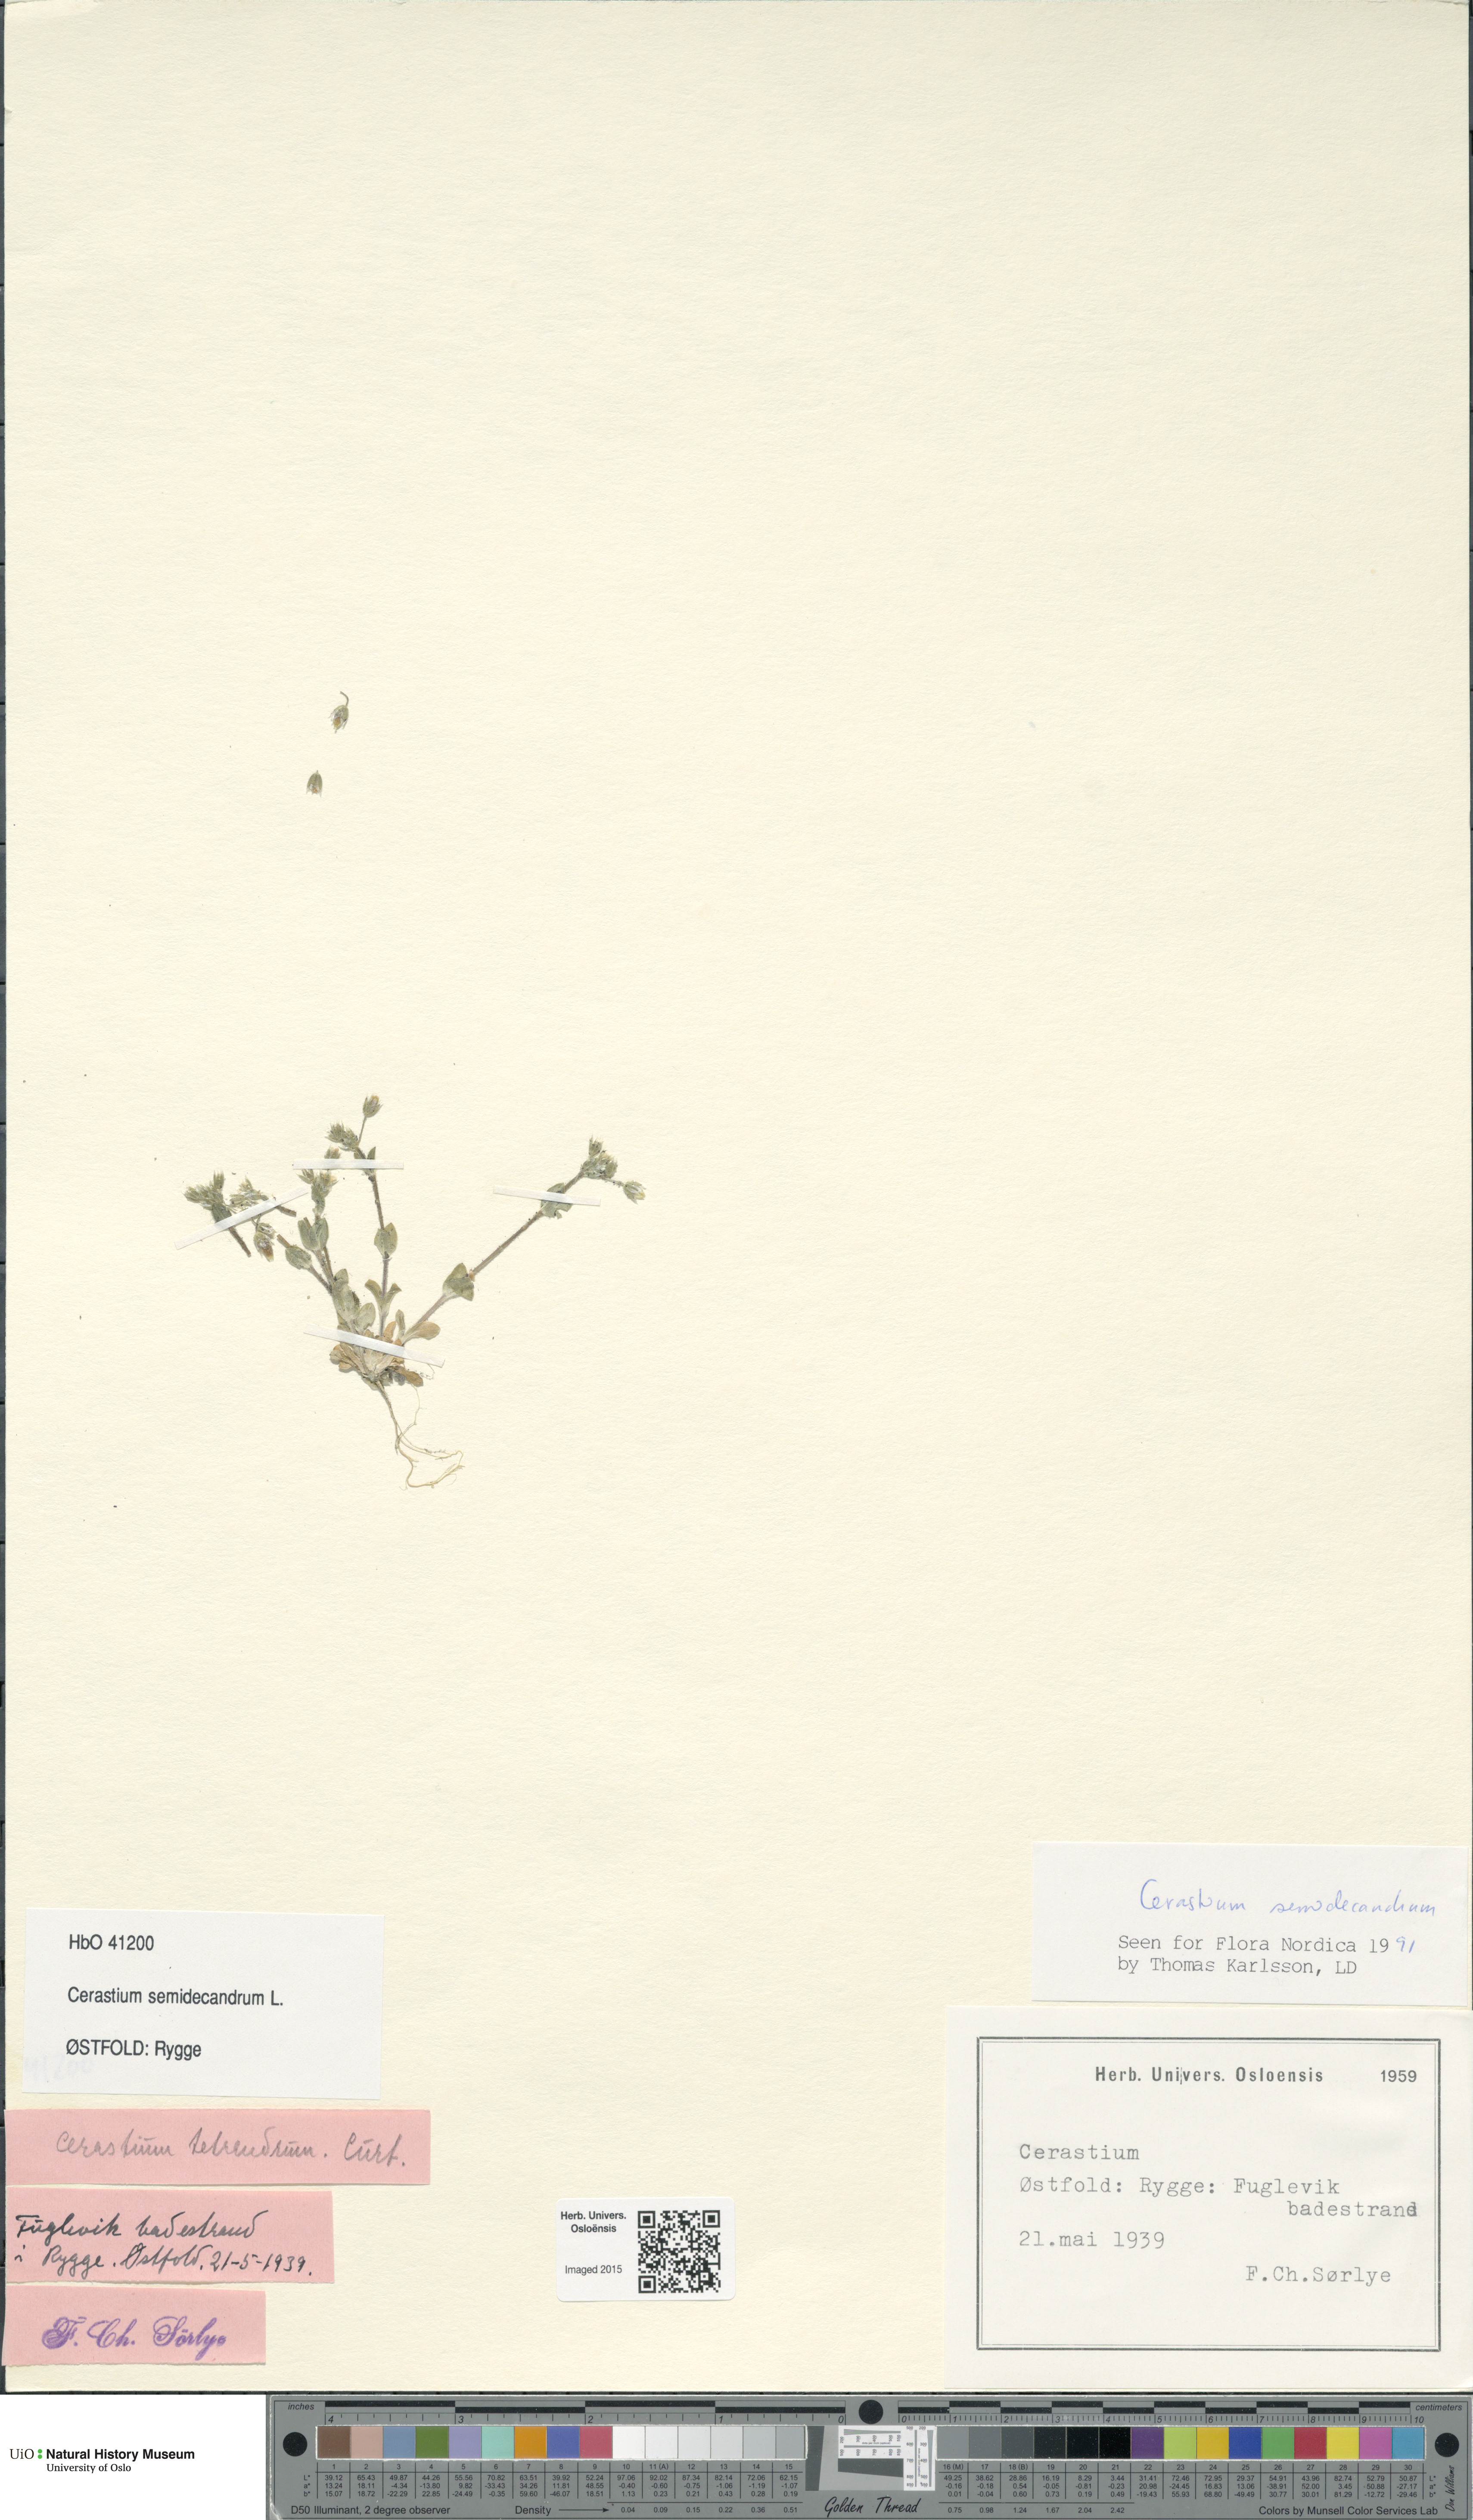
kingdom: Plantae
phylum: Tracheophyta
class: Magnoliopsida
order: Caryophyllales
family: Caryophyllaceae
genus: Cerastium
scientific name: Cerastium semidecandrum
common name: Little mouse-ear
